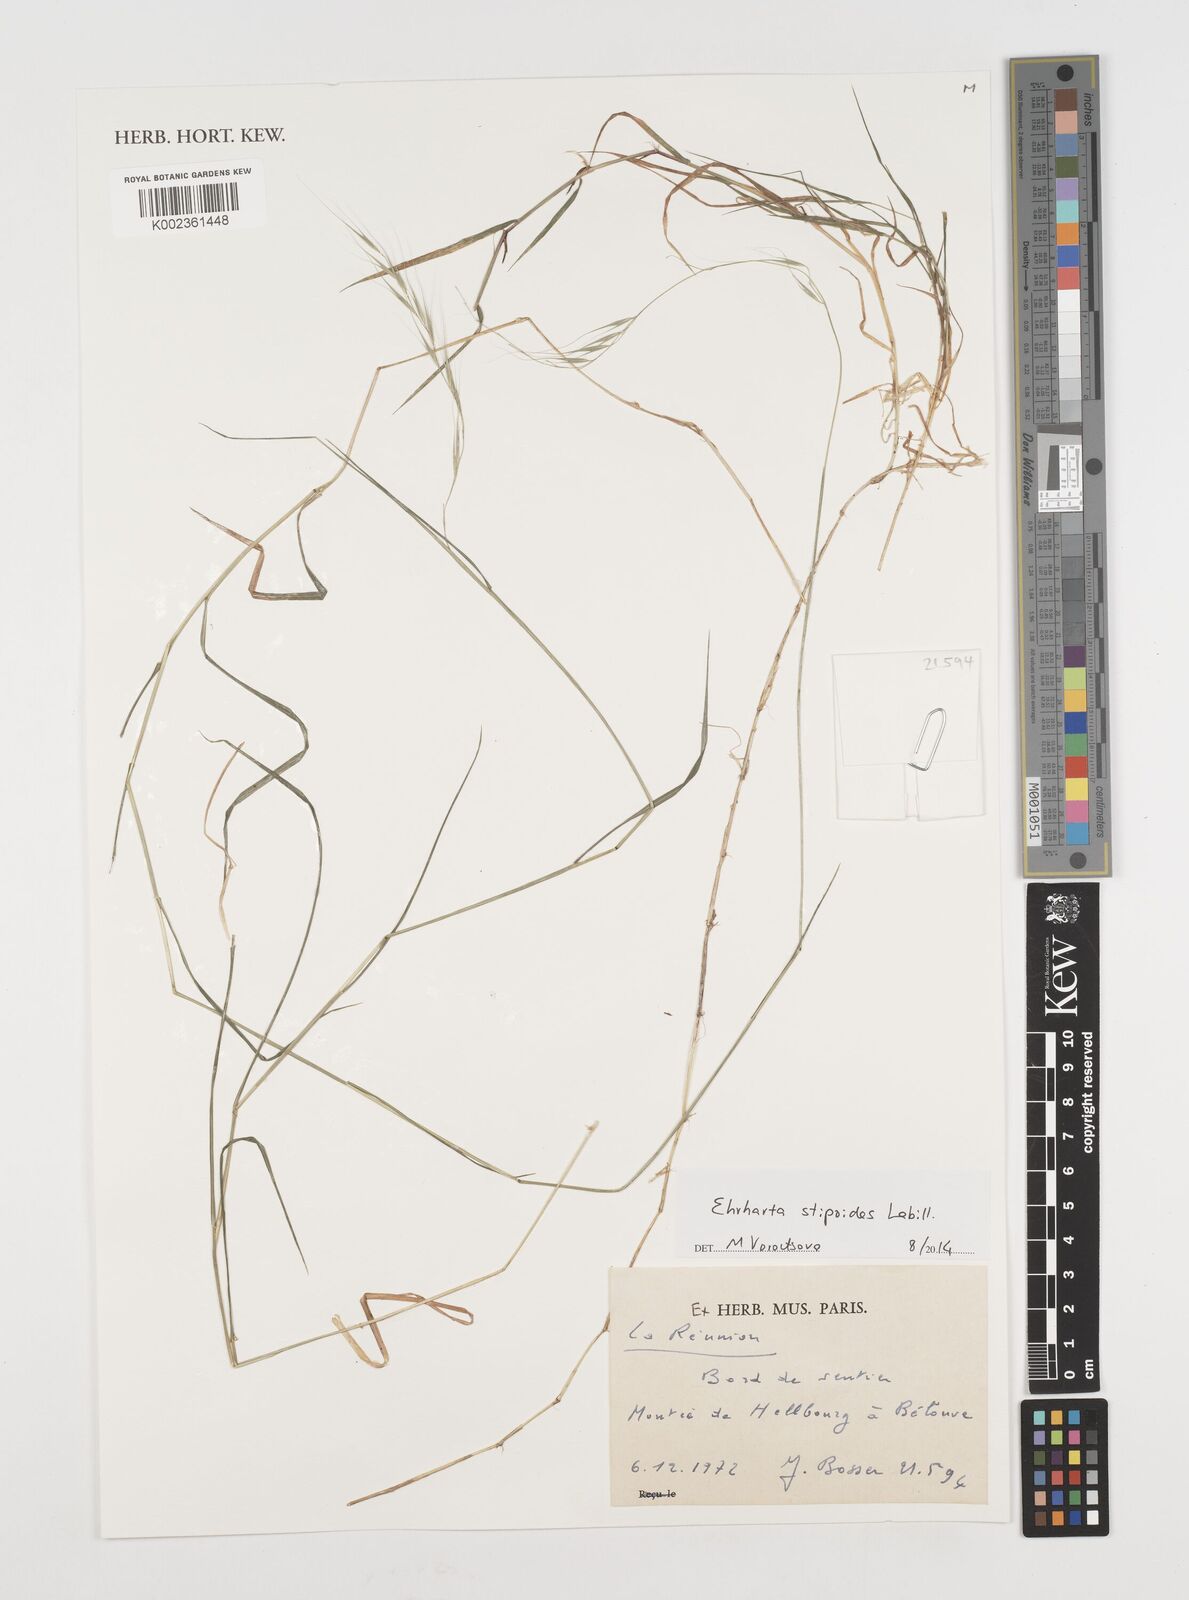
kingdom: Plantae
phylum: Tracheophyta
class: Liliopsida
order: Poales
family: Poaceae
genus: Microlaena
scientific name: Microlaena stipoides
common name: Meadow ricegrass
